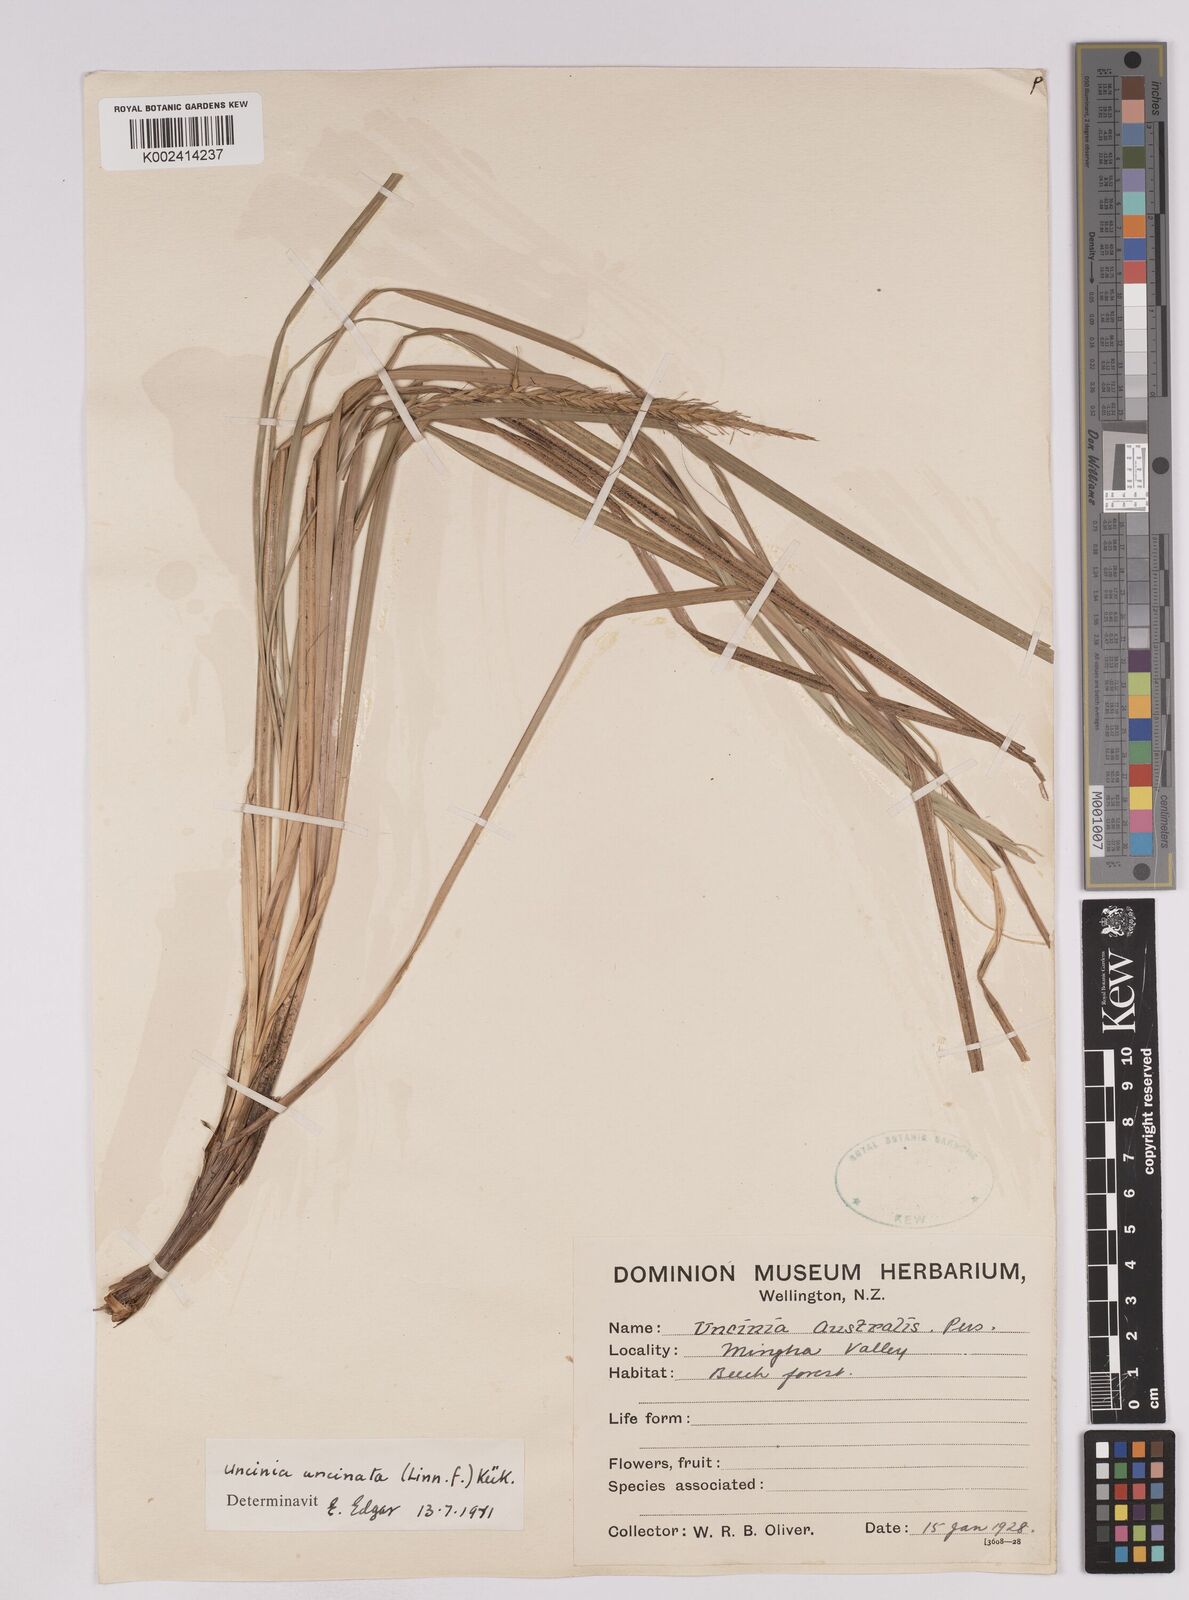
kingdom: Plantae
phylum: Tracheophyta
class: Liliopsida
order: Poales
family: Cyperaceae
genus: Carex
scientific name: Carex uncinata
